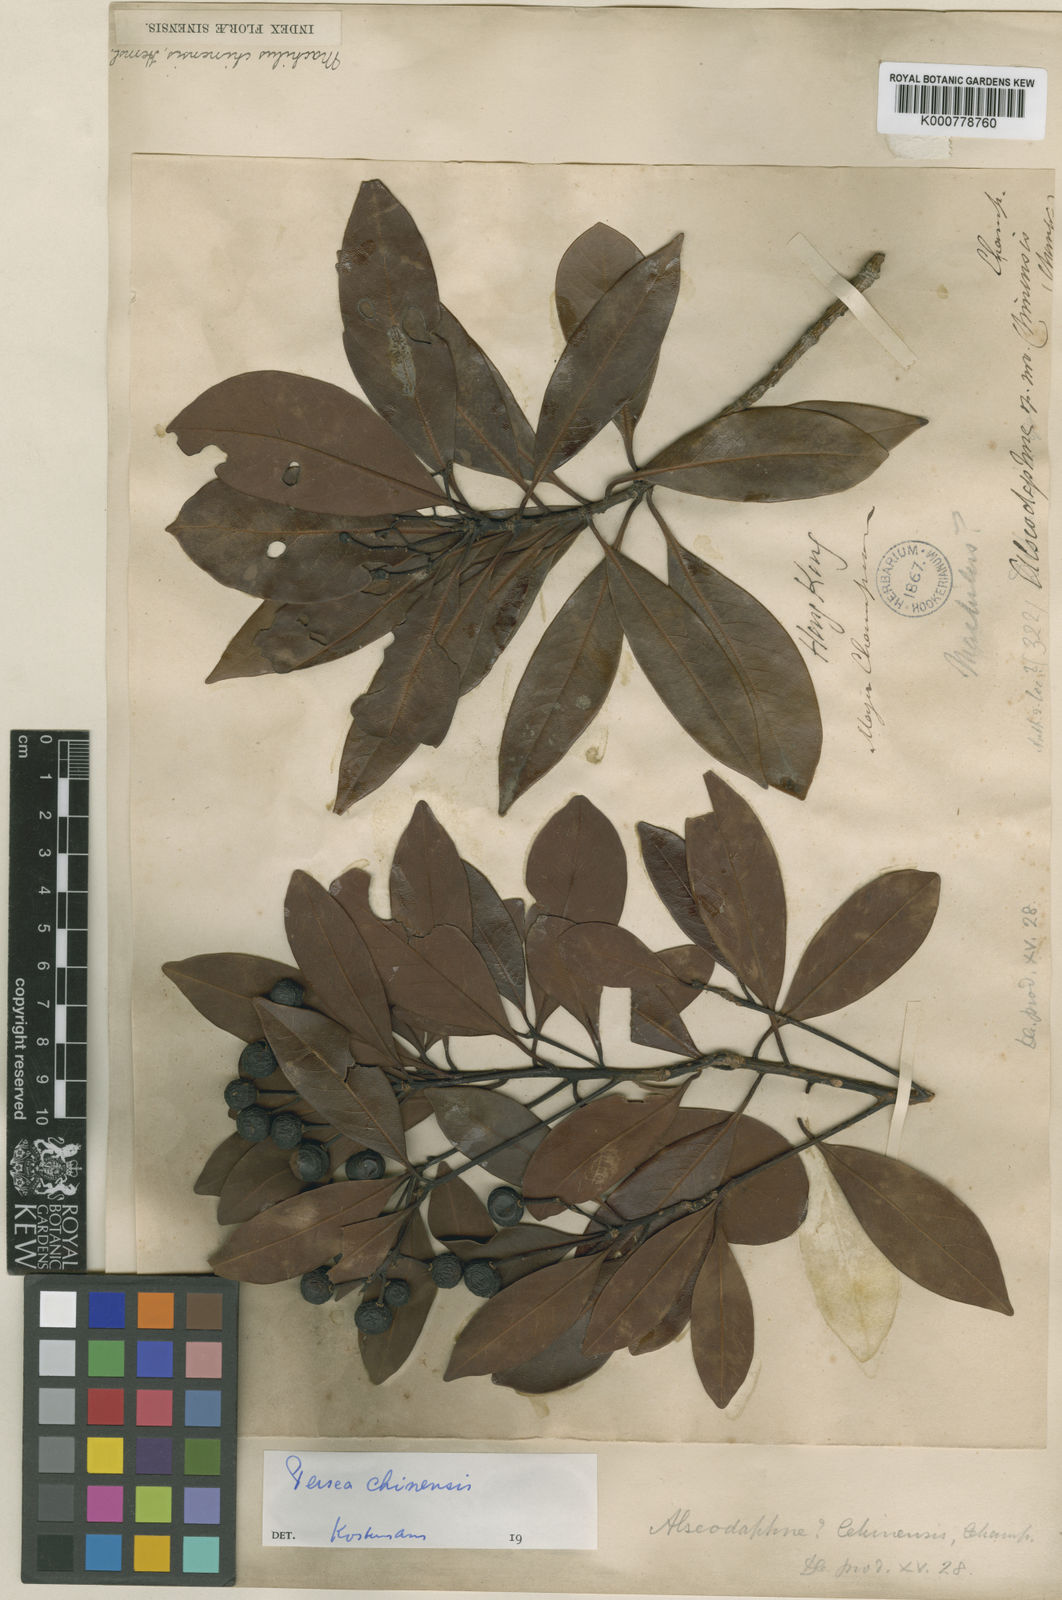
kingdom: Plantae
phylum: Tracheophyta
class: Magnoliopsida
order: Laurales
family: Lauraceae
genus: Machilus
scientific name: Machilus chienkweiensis
